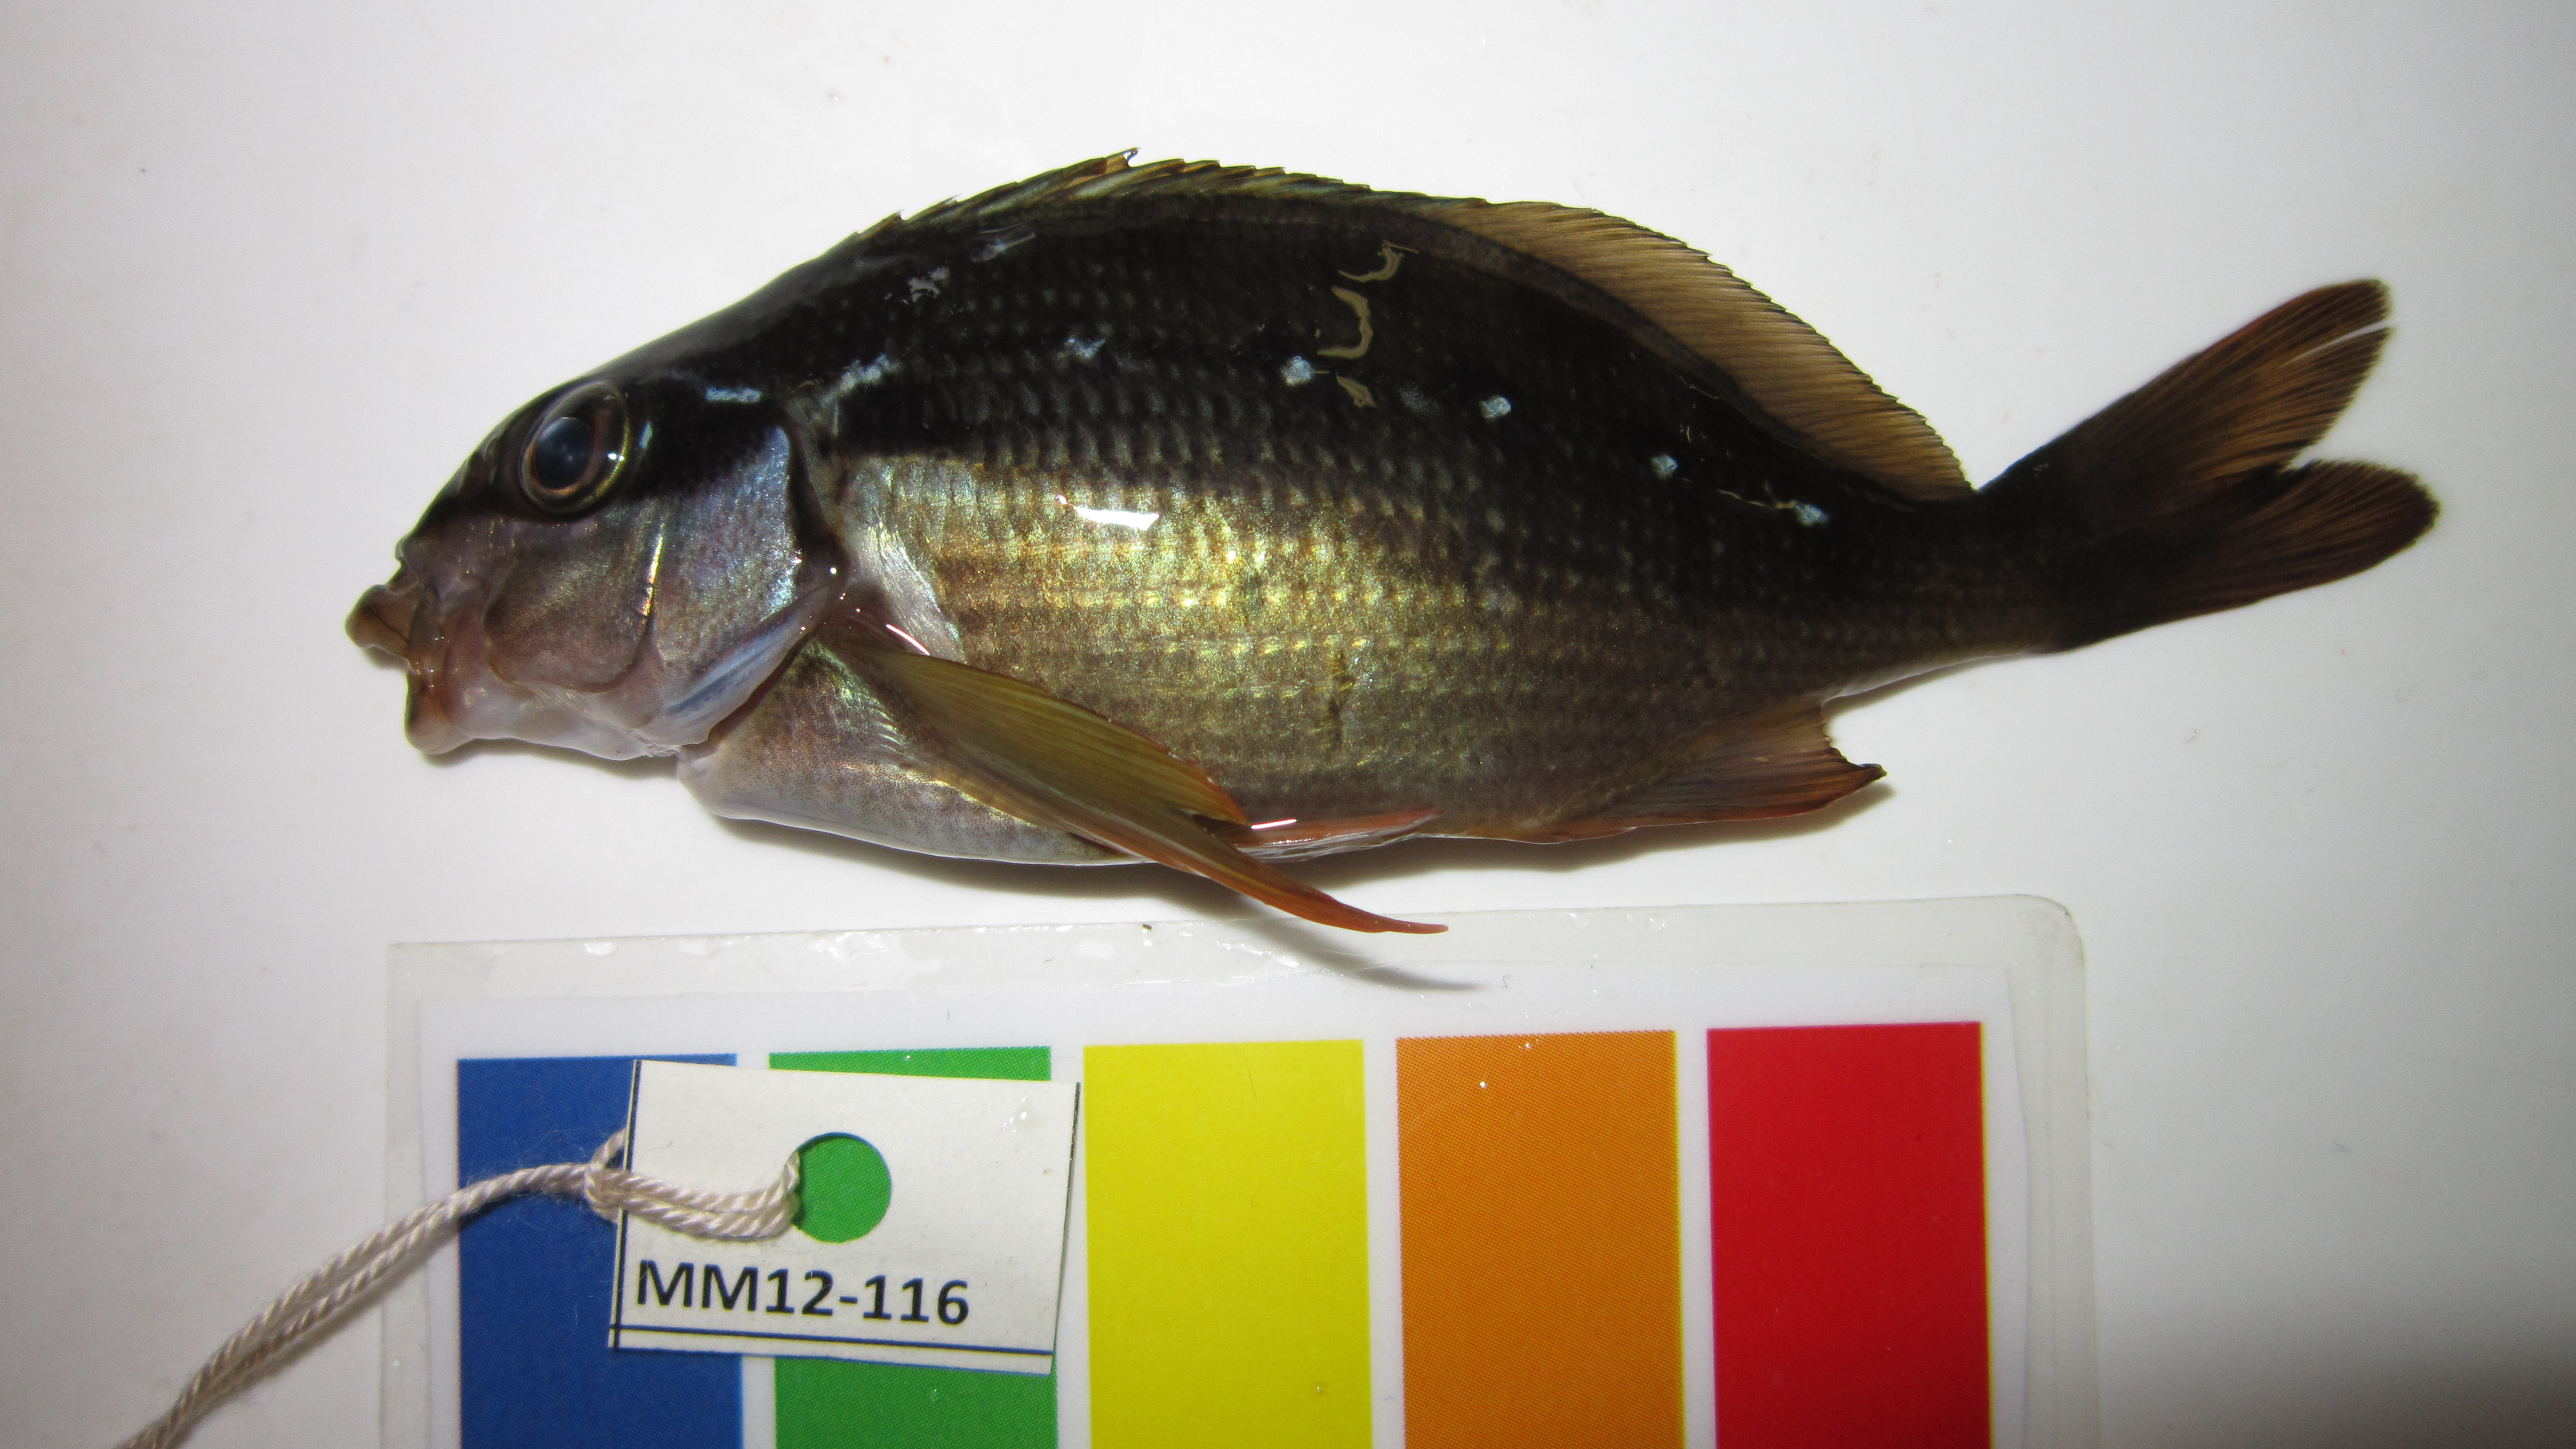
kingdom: Animalia
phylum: Chordata
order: Perciformes
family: Cheilodactylidae
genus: Chirodactylus
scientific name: Chirodactylus brachydactylus
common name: Butterfish
